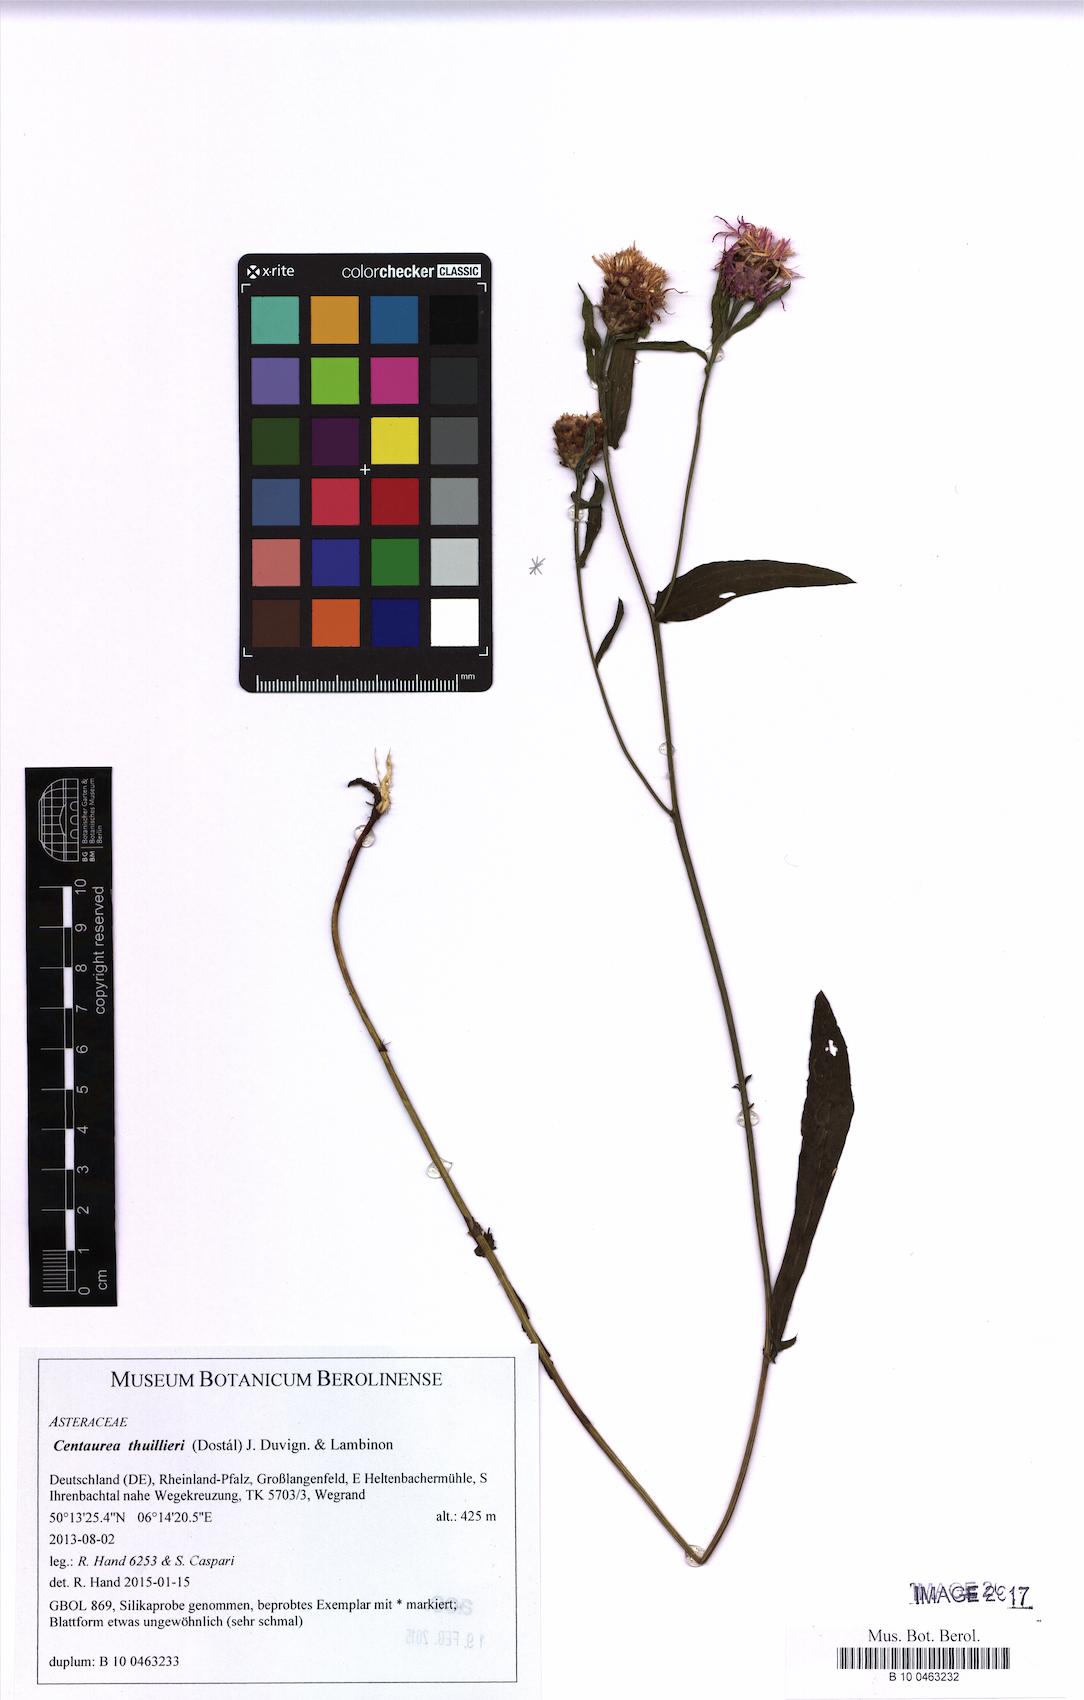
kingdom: Plantae
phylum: Tracheophyta
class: Magnoliopsida
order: Asterales
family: Asteraceae
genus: Centaurea
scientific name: Centaurea thuillieri
